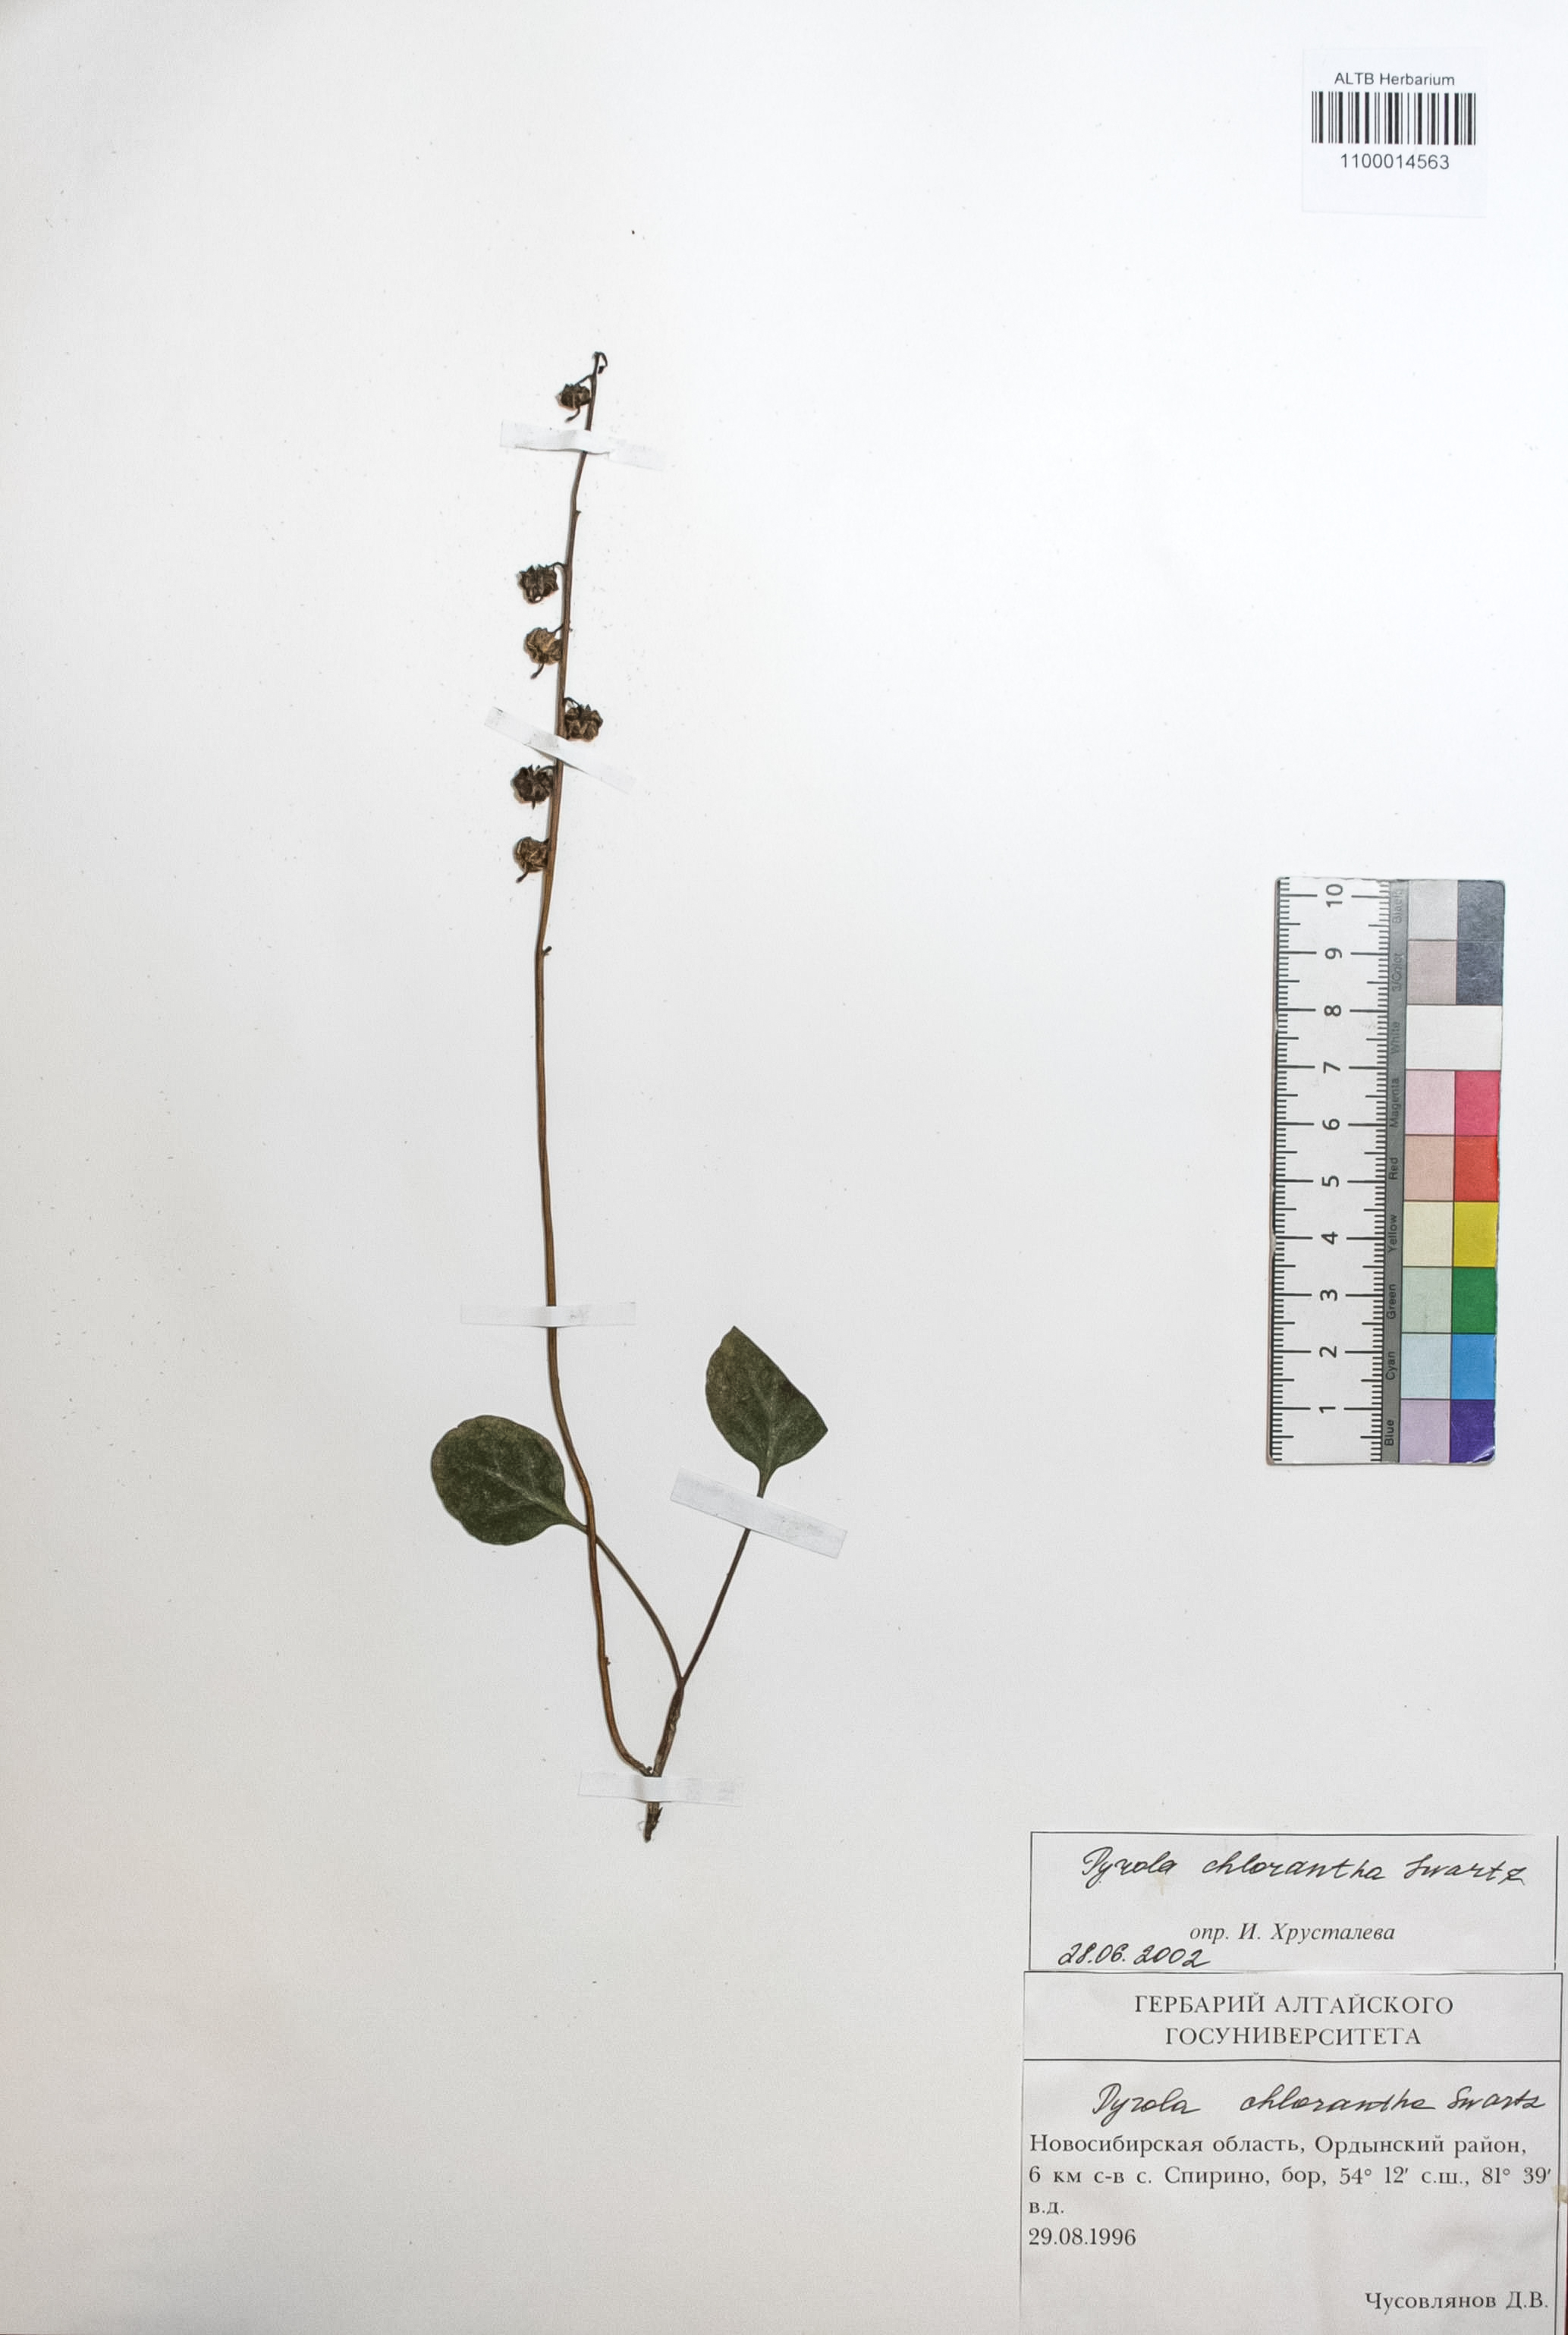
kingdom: Plantae
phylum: Tracheophyta
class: Magnoliopsida
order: Ericales
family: Ericaceae
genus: Pyrola
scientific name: Pyrola chlorantha
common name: Green wintergreen
